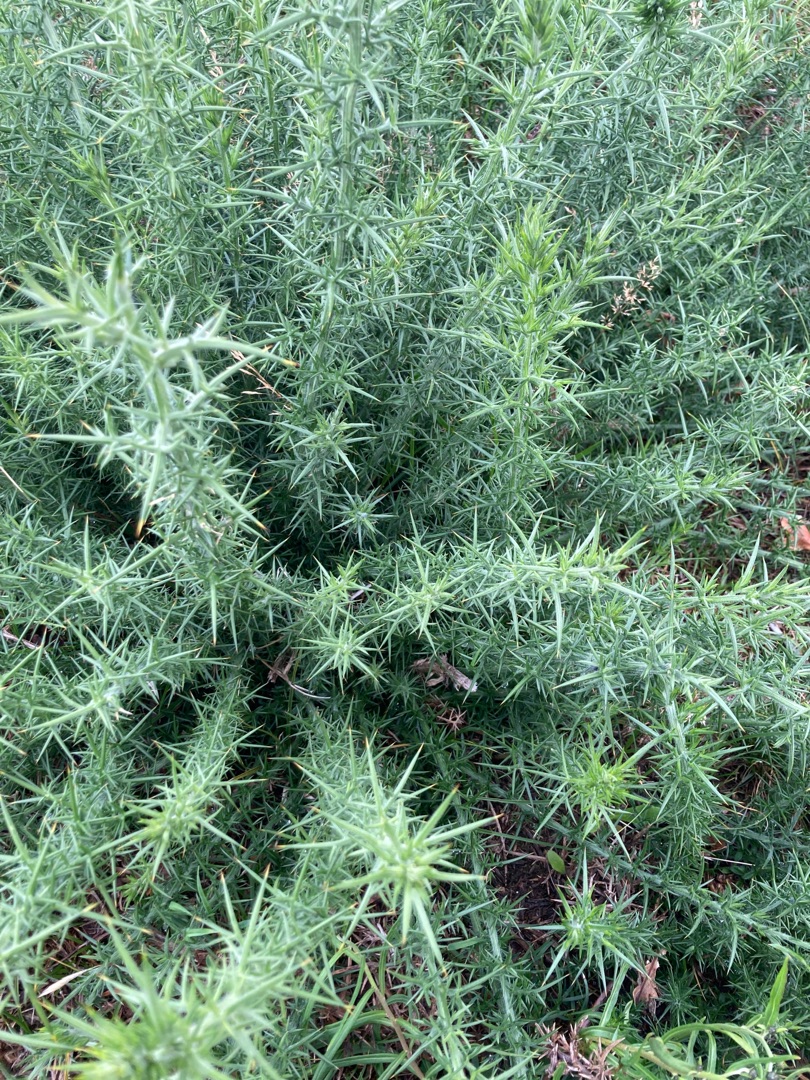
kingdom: Plantae
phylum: Tracheophyta
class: Magnoliopsida
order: Fabales
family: Fabaceae
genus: Ulex
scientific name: Ulex europaeus
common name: Tornblad
